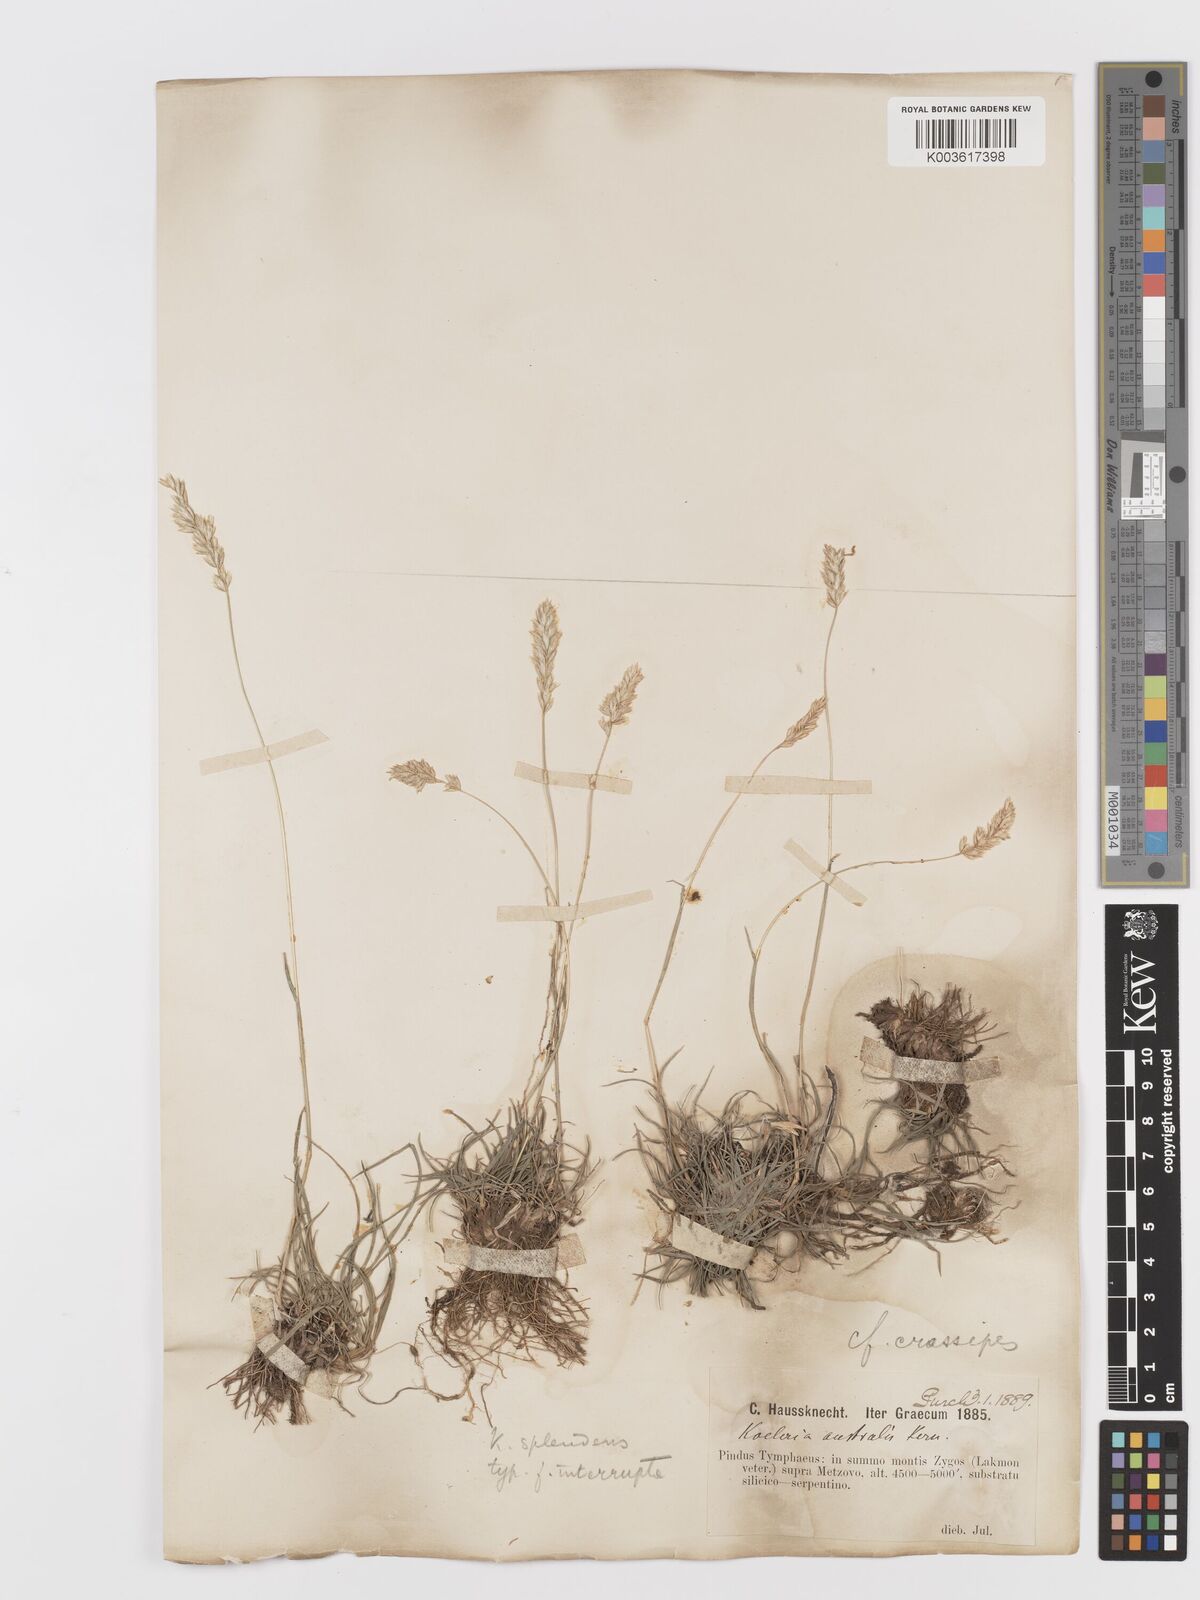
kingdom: Plantae
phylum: Tracheophyta
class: Liliopsida
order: Poales
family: Poaceae
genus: Koeleria
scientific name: Koeleria splendens
